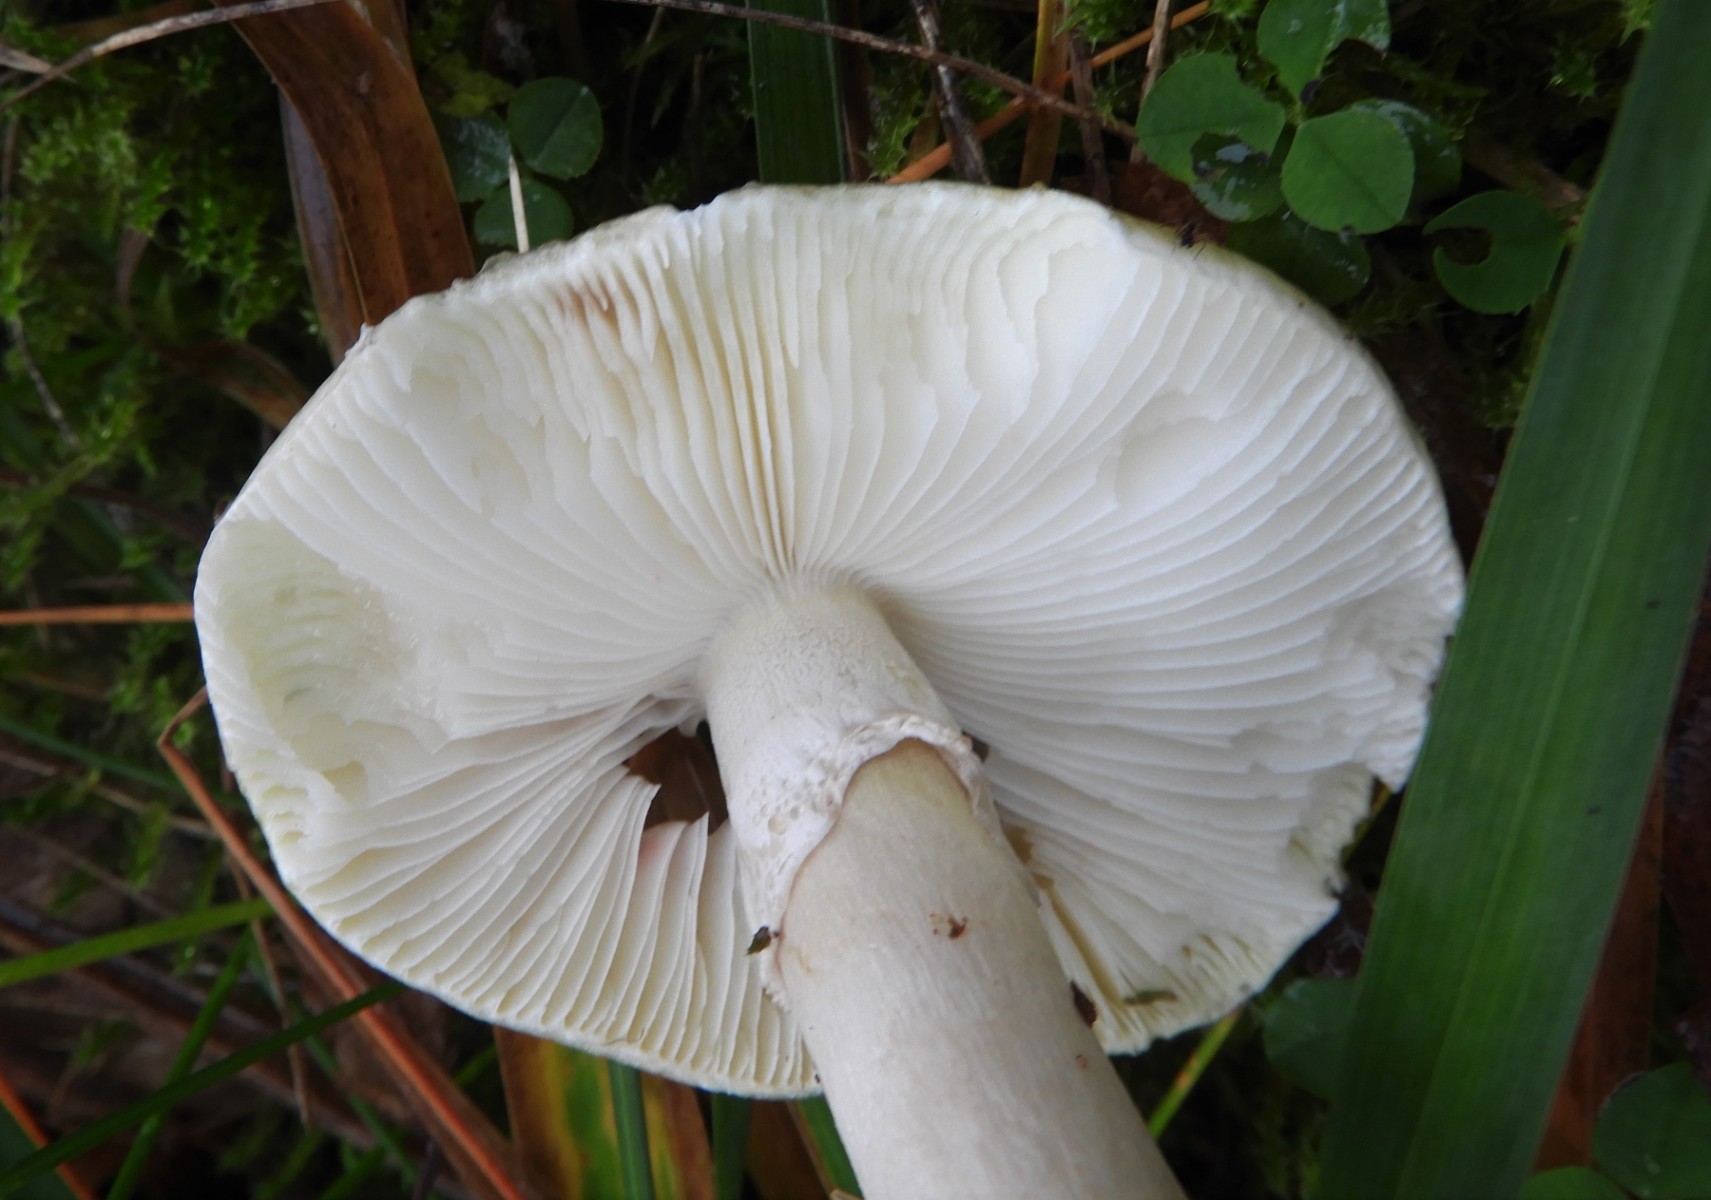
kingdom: Fungi
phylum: Basidiomycota
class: Agaricomycetes
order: Agaricales
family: Amanitaceae
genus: Amanita
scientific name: Amanita phalloides
